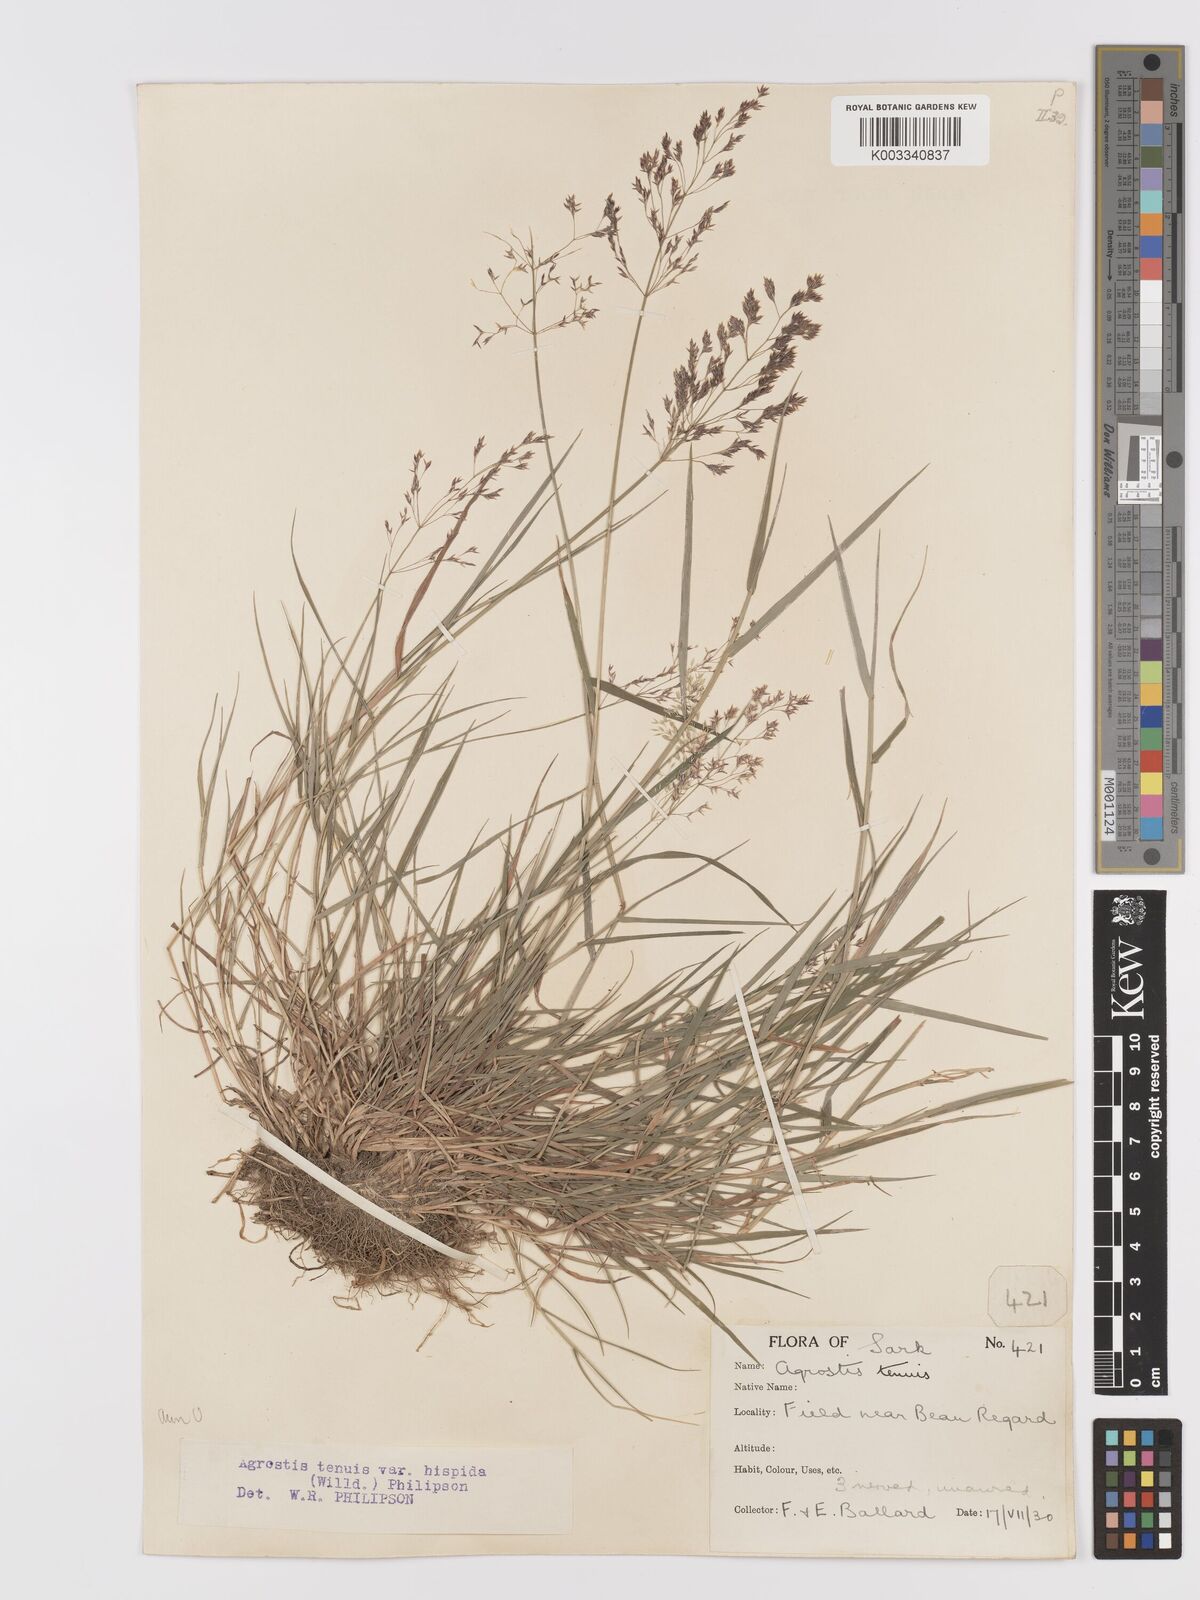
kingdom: Plantae
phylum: Tracheophyta
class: Liliopsida
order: Poales
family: Poaceae
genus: Agrostis
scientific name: Agrostis capillaris
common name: Colonial bentgrass
